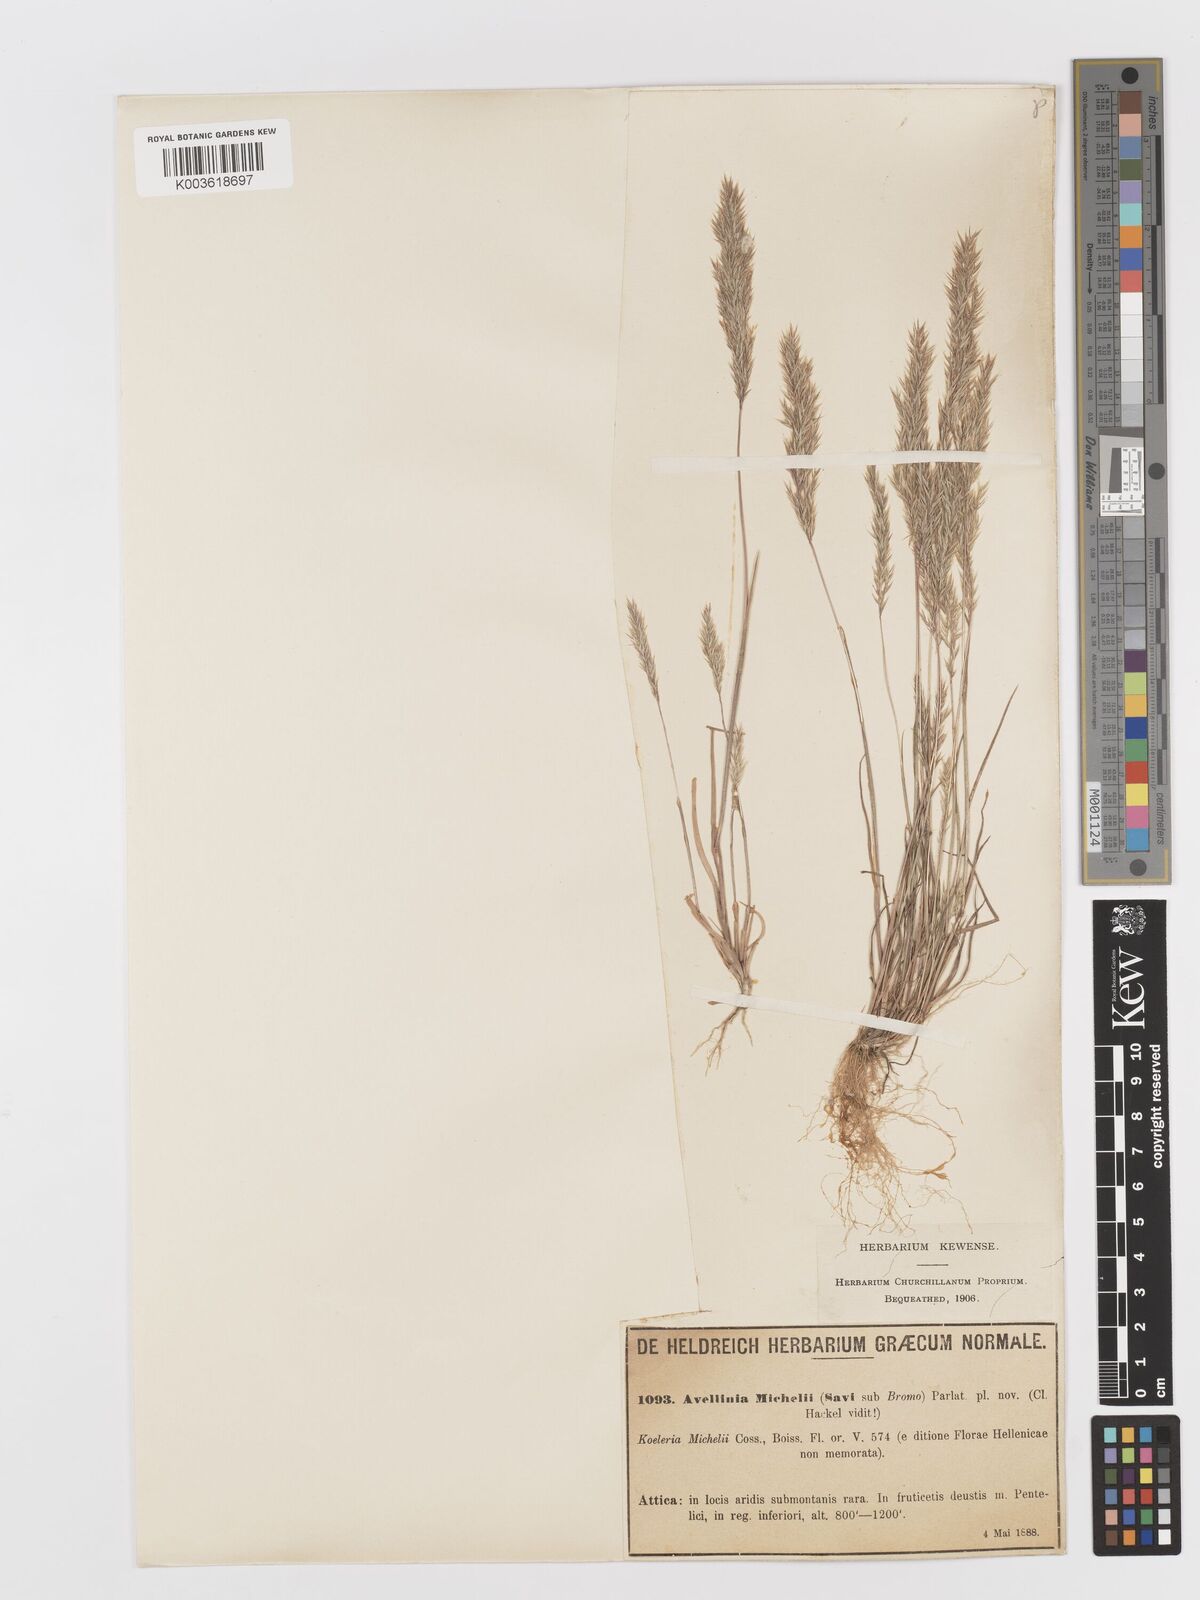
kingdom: Plantae
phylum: Tracheophyta
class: Liliopsida
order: Poales
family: Poaceae
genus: Avellinia
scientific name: Avellinia festucoides
